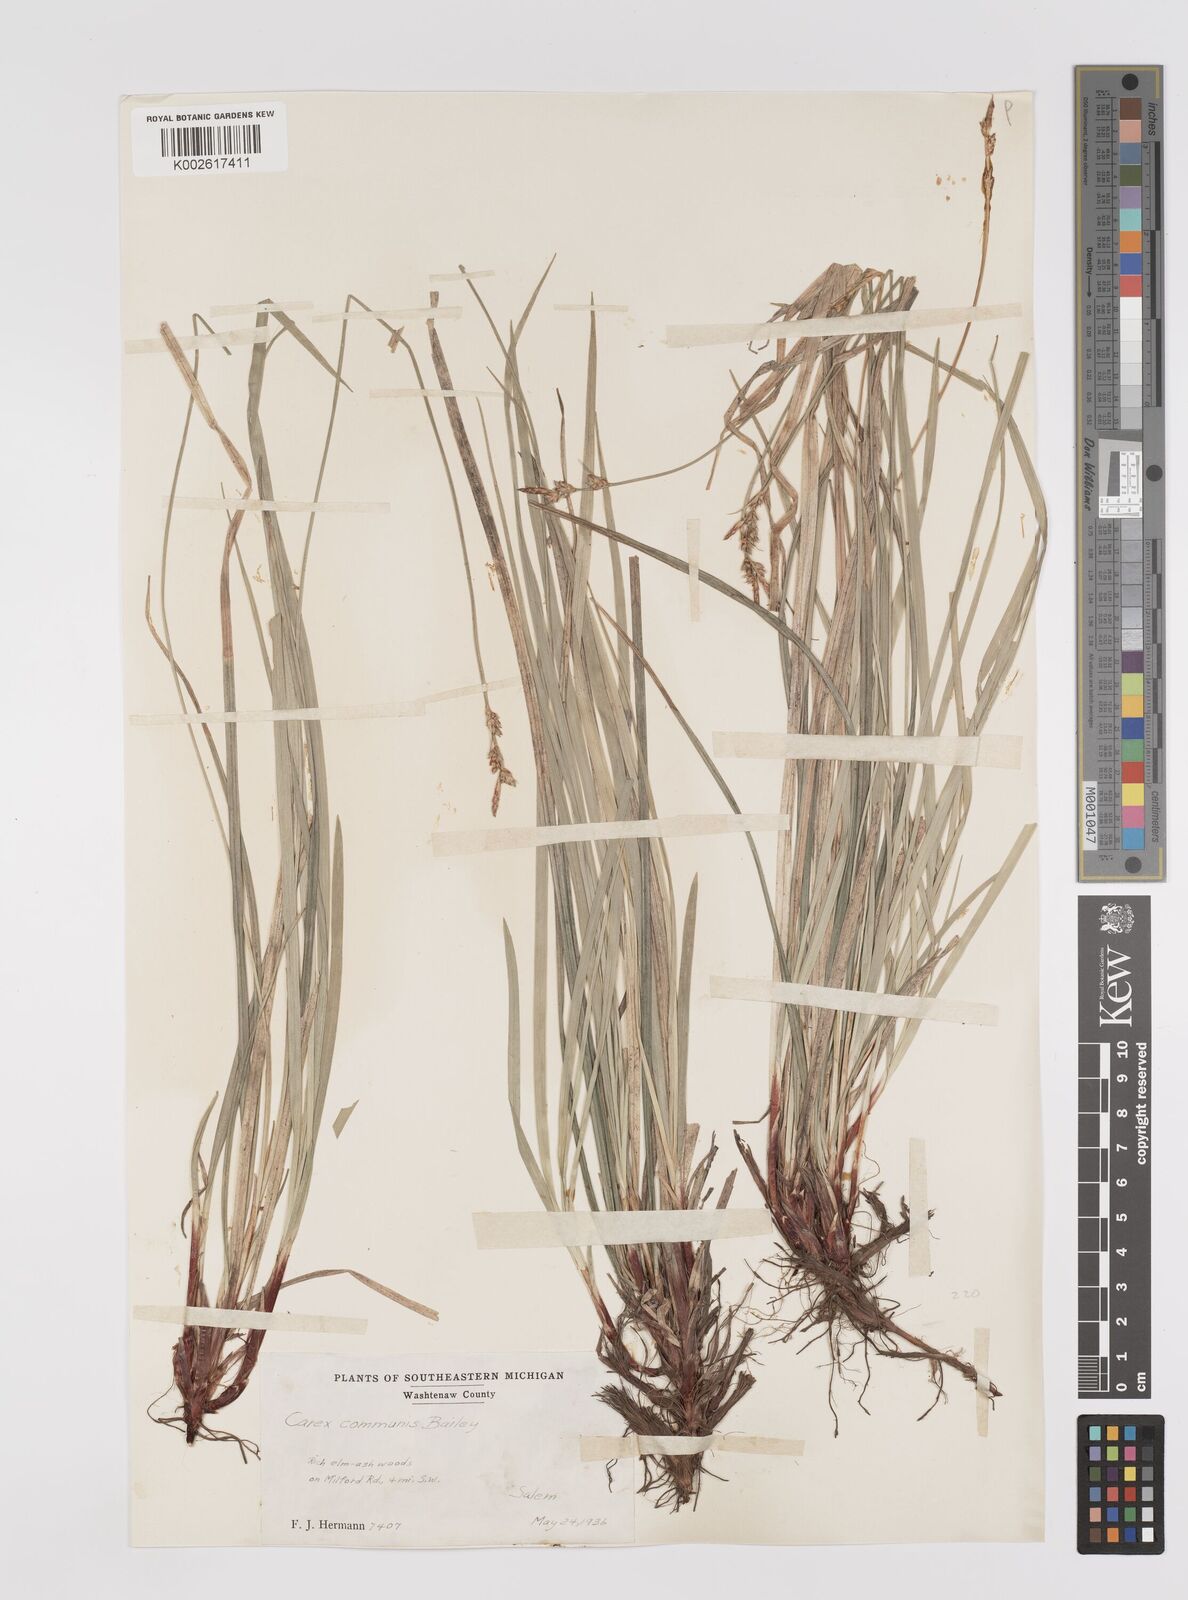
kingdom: Plantae
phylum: Tracheophyta
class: Liliopsida
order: Poales
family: Cyperaceae
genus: Carex
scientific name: Carex communis
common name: Colonial oak sedge
